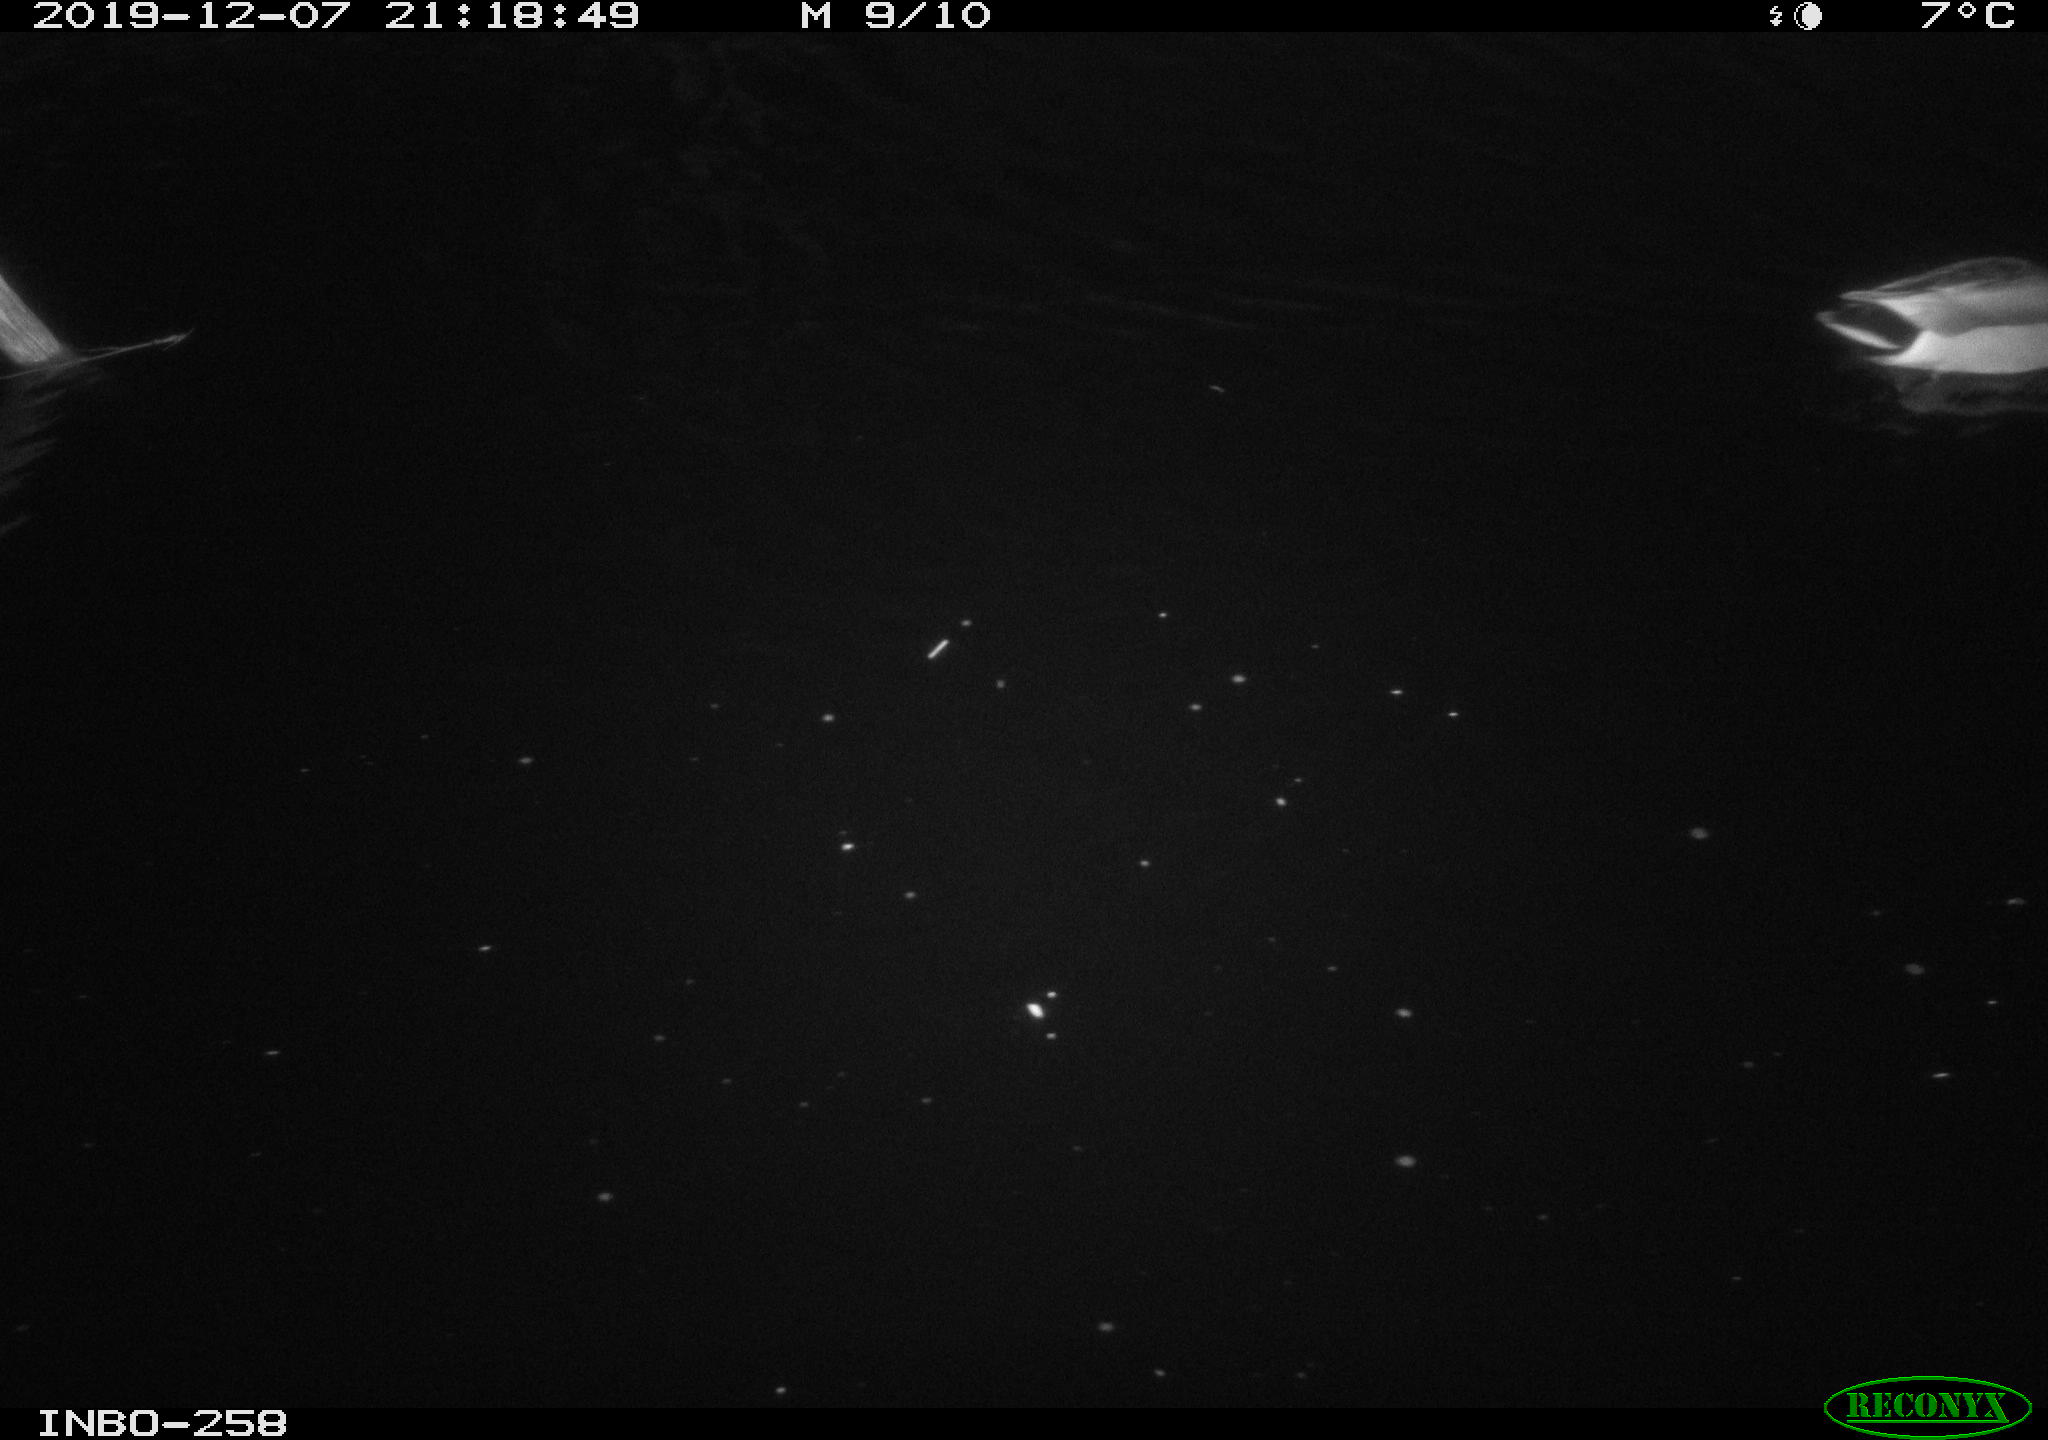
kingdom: Animalia
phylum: Chordata
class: Aves
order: Anseriformes
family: Anatidae
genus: Anas
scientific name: Anas platyrhynchos
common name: Mallard
